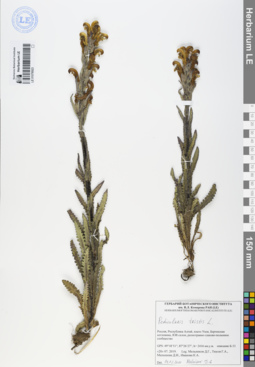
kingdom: Plantae
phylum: Tracheophyta
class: Magnoliopsida
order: Lamiales
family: Orobanchaceae
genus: Pedicularis
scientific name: Pedicularis tristis
